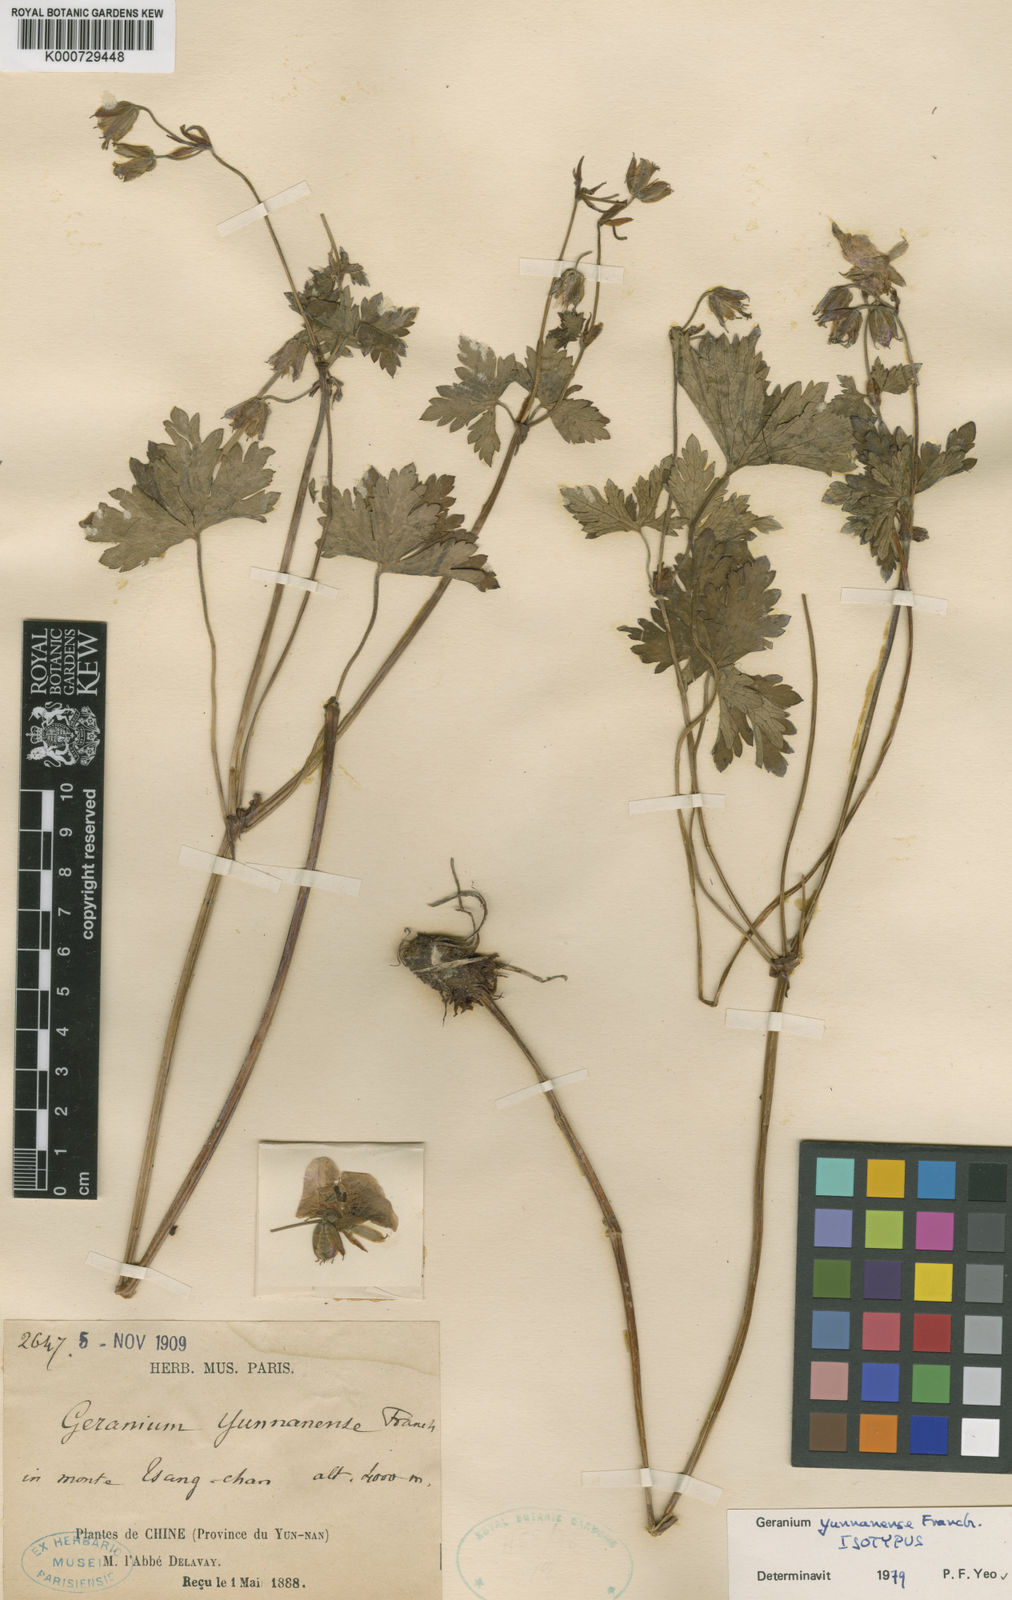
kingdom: Plantae
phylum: Tracheophyta
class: Magnoliopsida
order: Geraniales
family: Geraniaceae
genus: Geranium
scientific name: Geranium yunnanense
